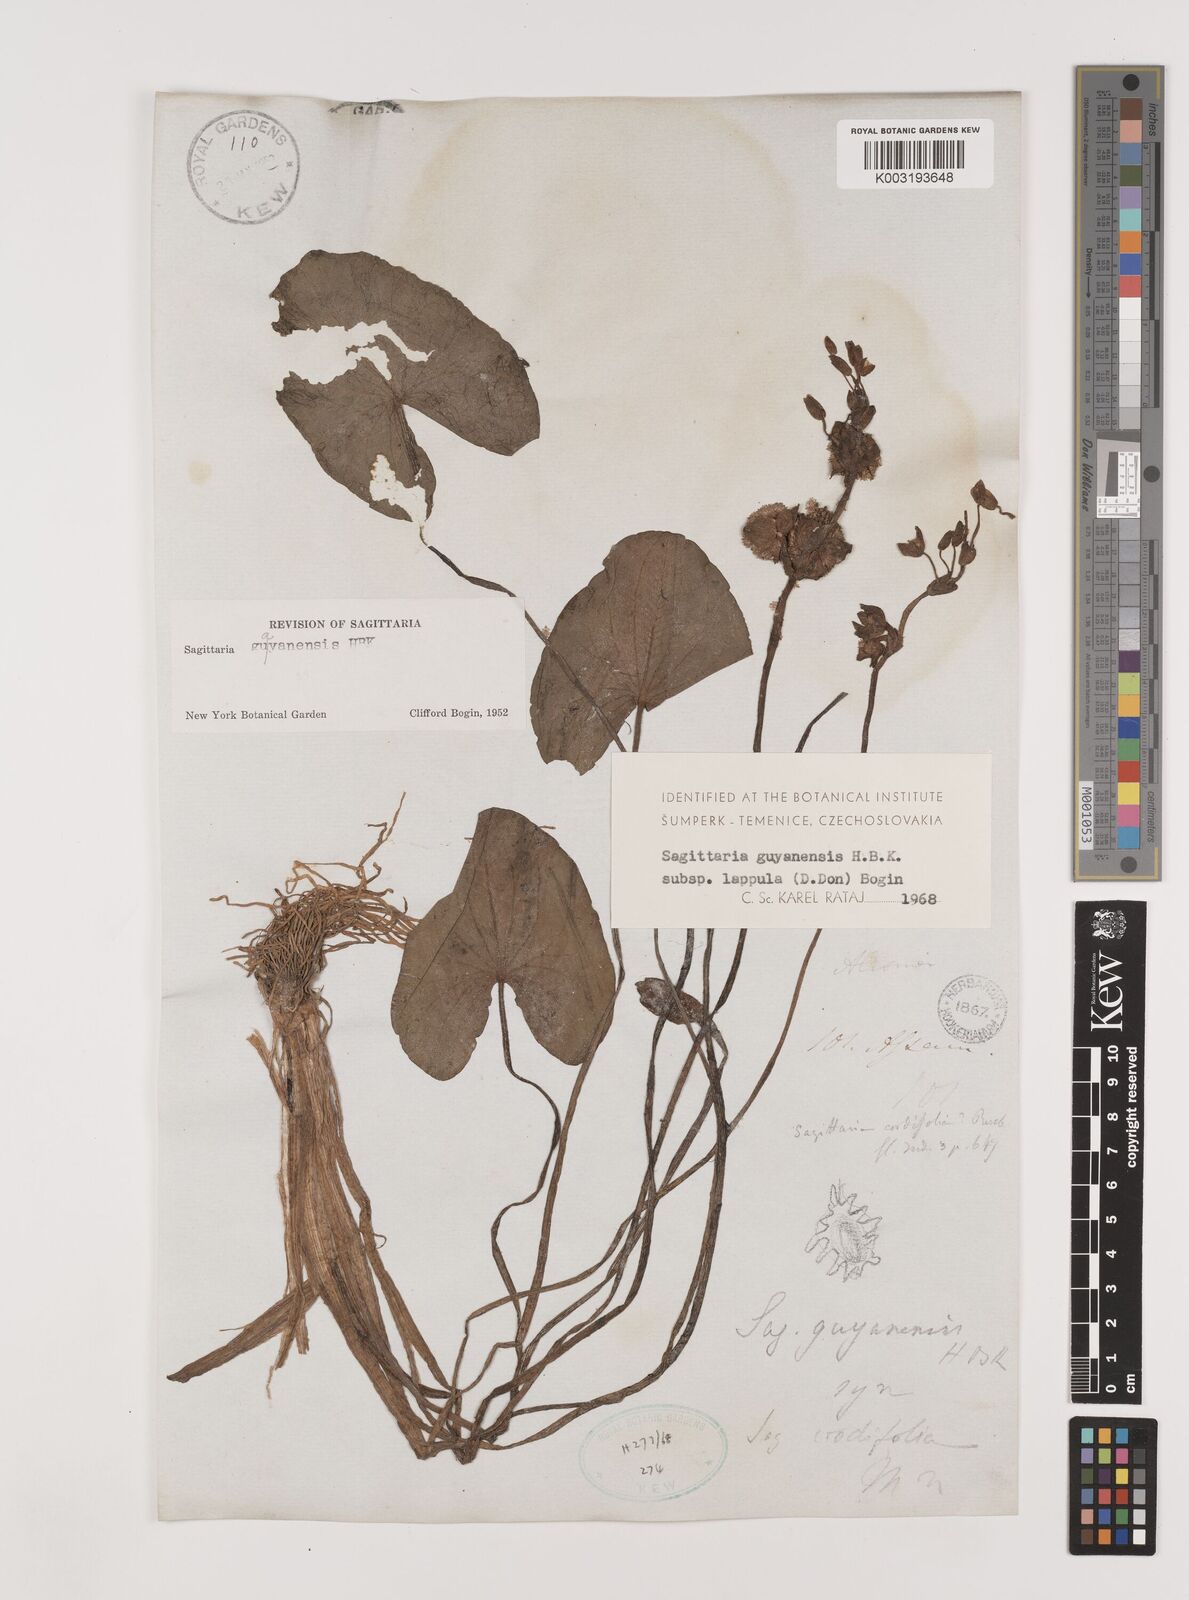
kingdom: Plantae
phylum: Tracheophyta
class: Liliopsida
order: Alismatales
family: Alismataceae
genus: Sagittaria
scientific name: Sagittaria guayanensis
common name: Guyanese arrowhead
